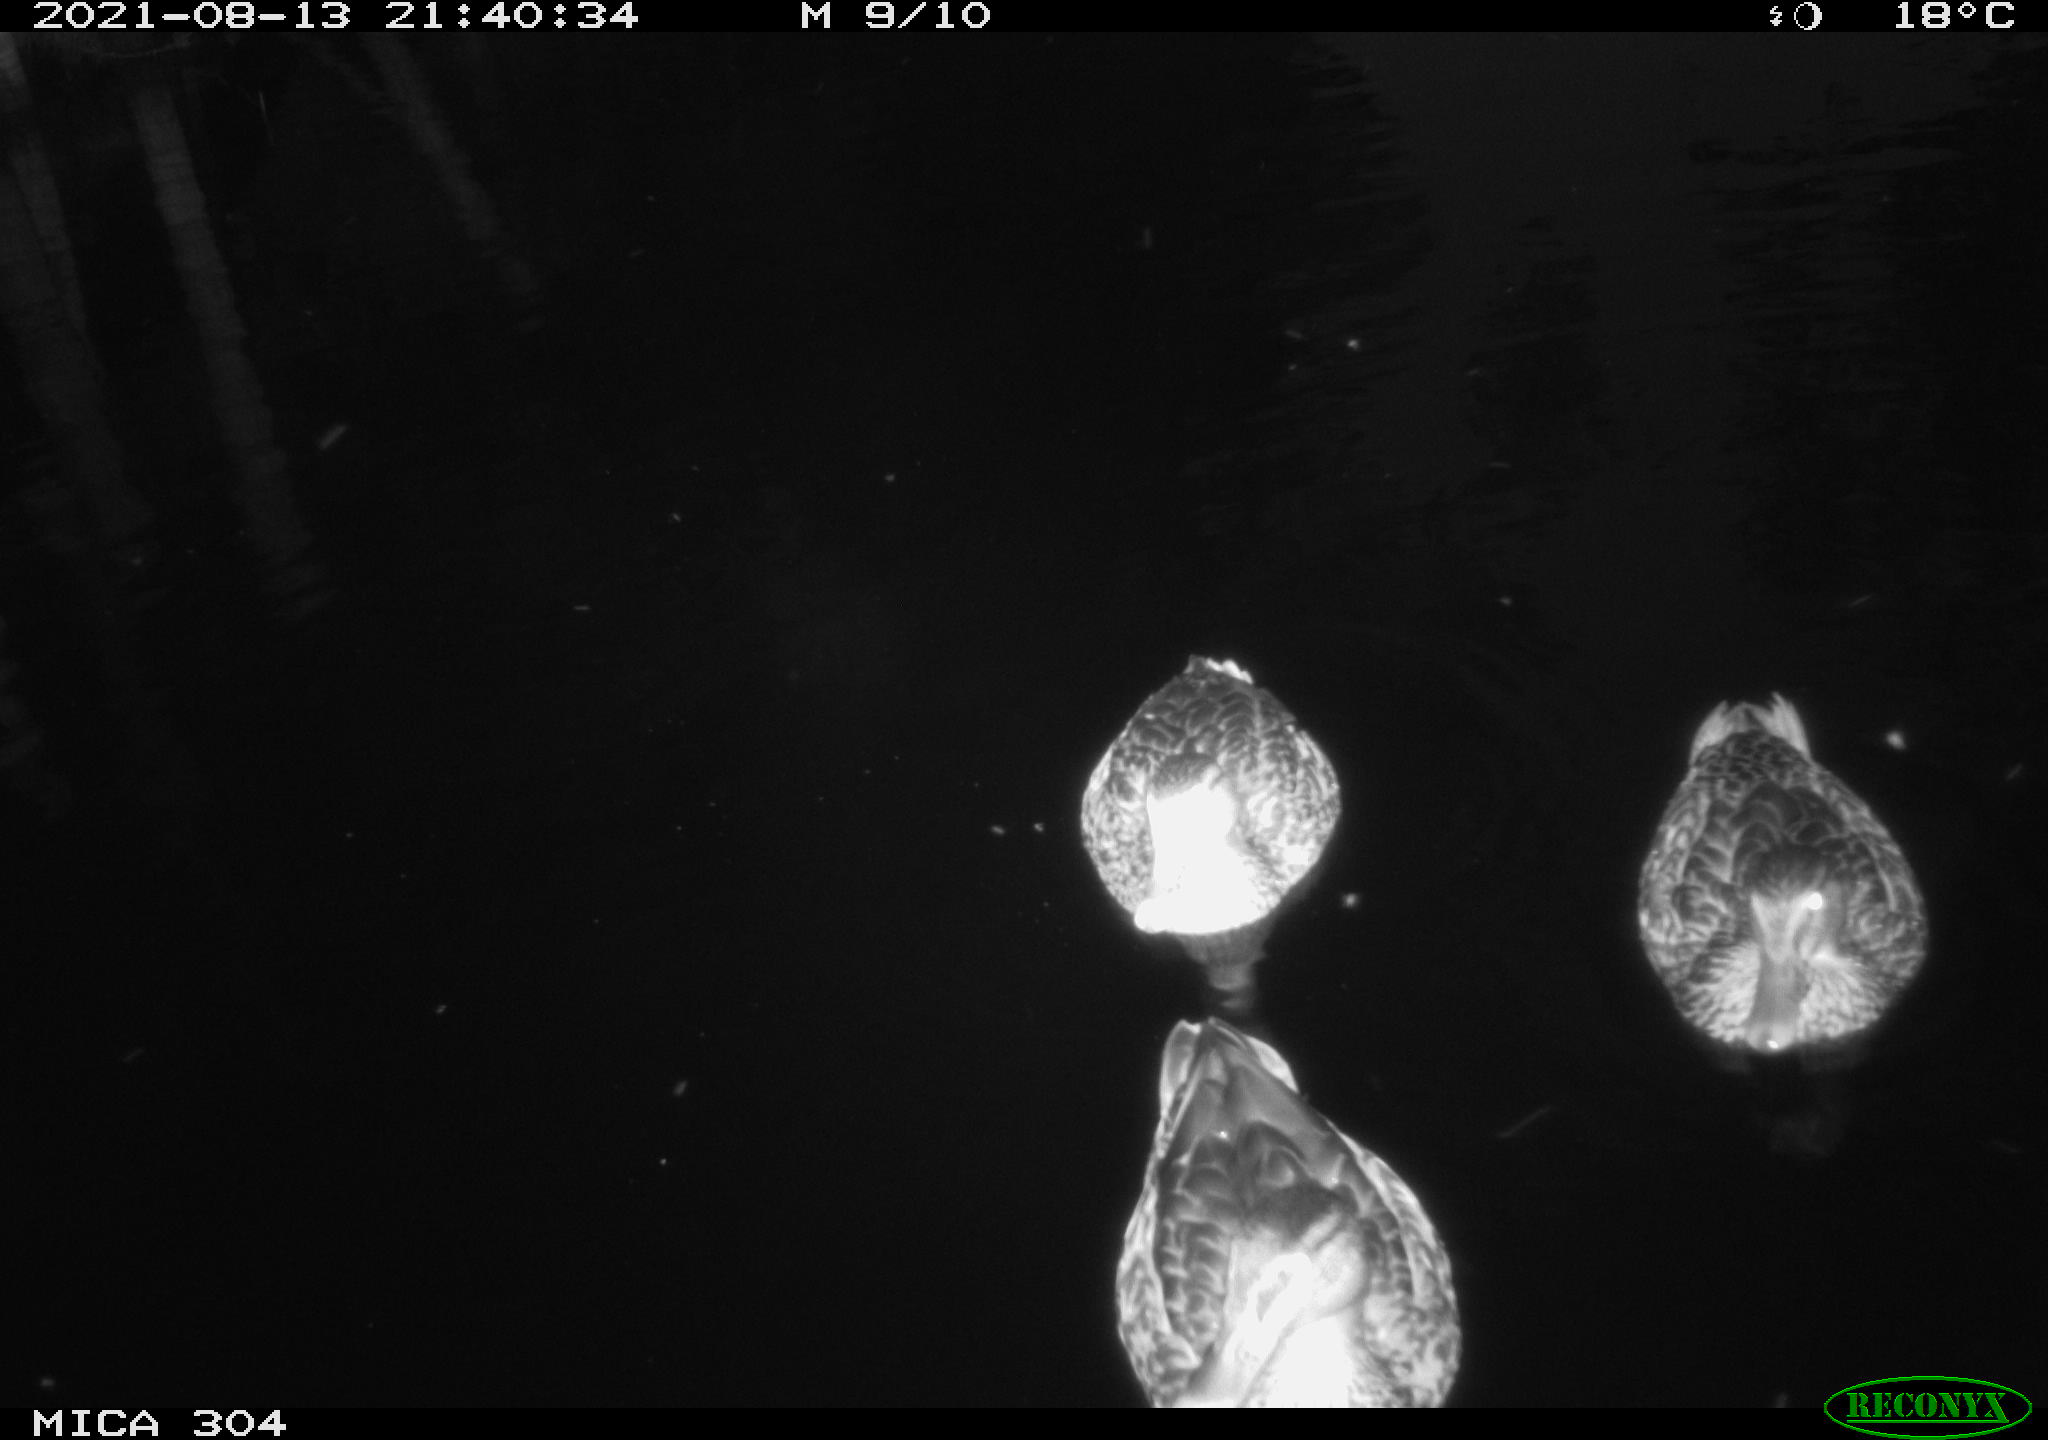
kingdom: Animalia
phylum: Chordata
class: Aves
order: Anseriformes
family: Anatidae
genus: Mareca
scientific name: Mareca strepera
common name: Gadwall
